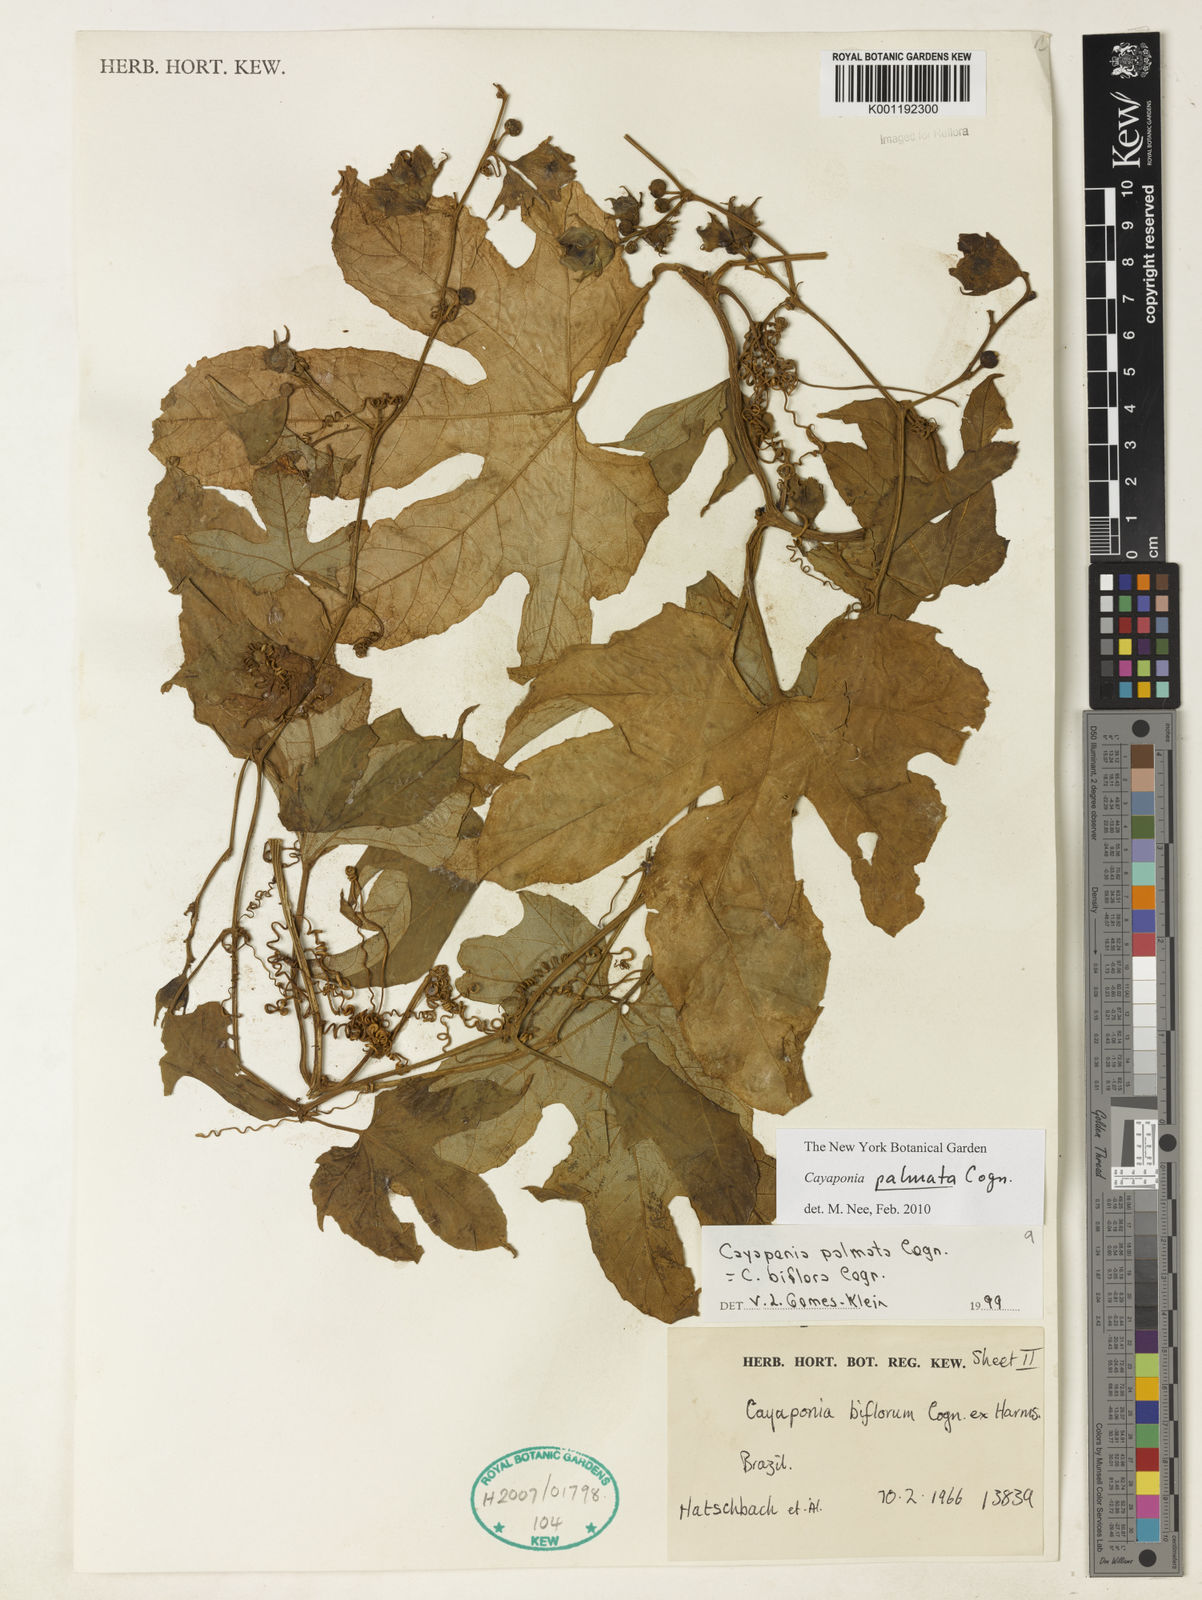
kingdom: Plantae
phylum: Tracheophyta
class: Magnoliopsida
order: Cucurbitales
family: Cucurbitaceae
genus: Cayaponia
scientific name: Cayaponia palmata
